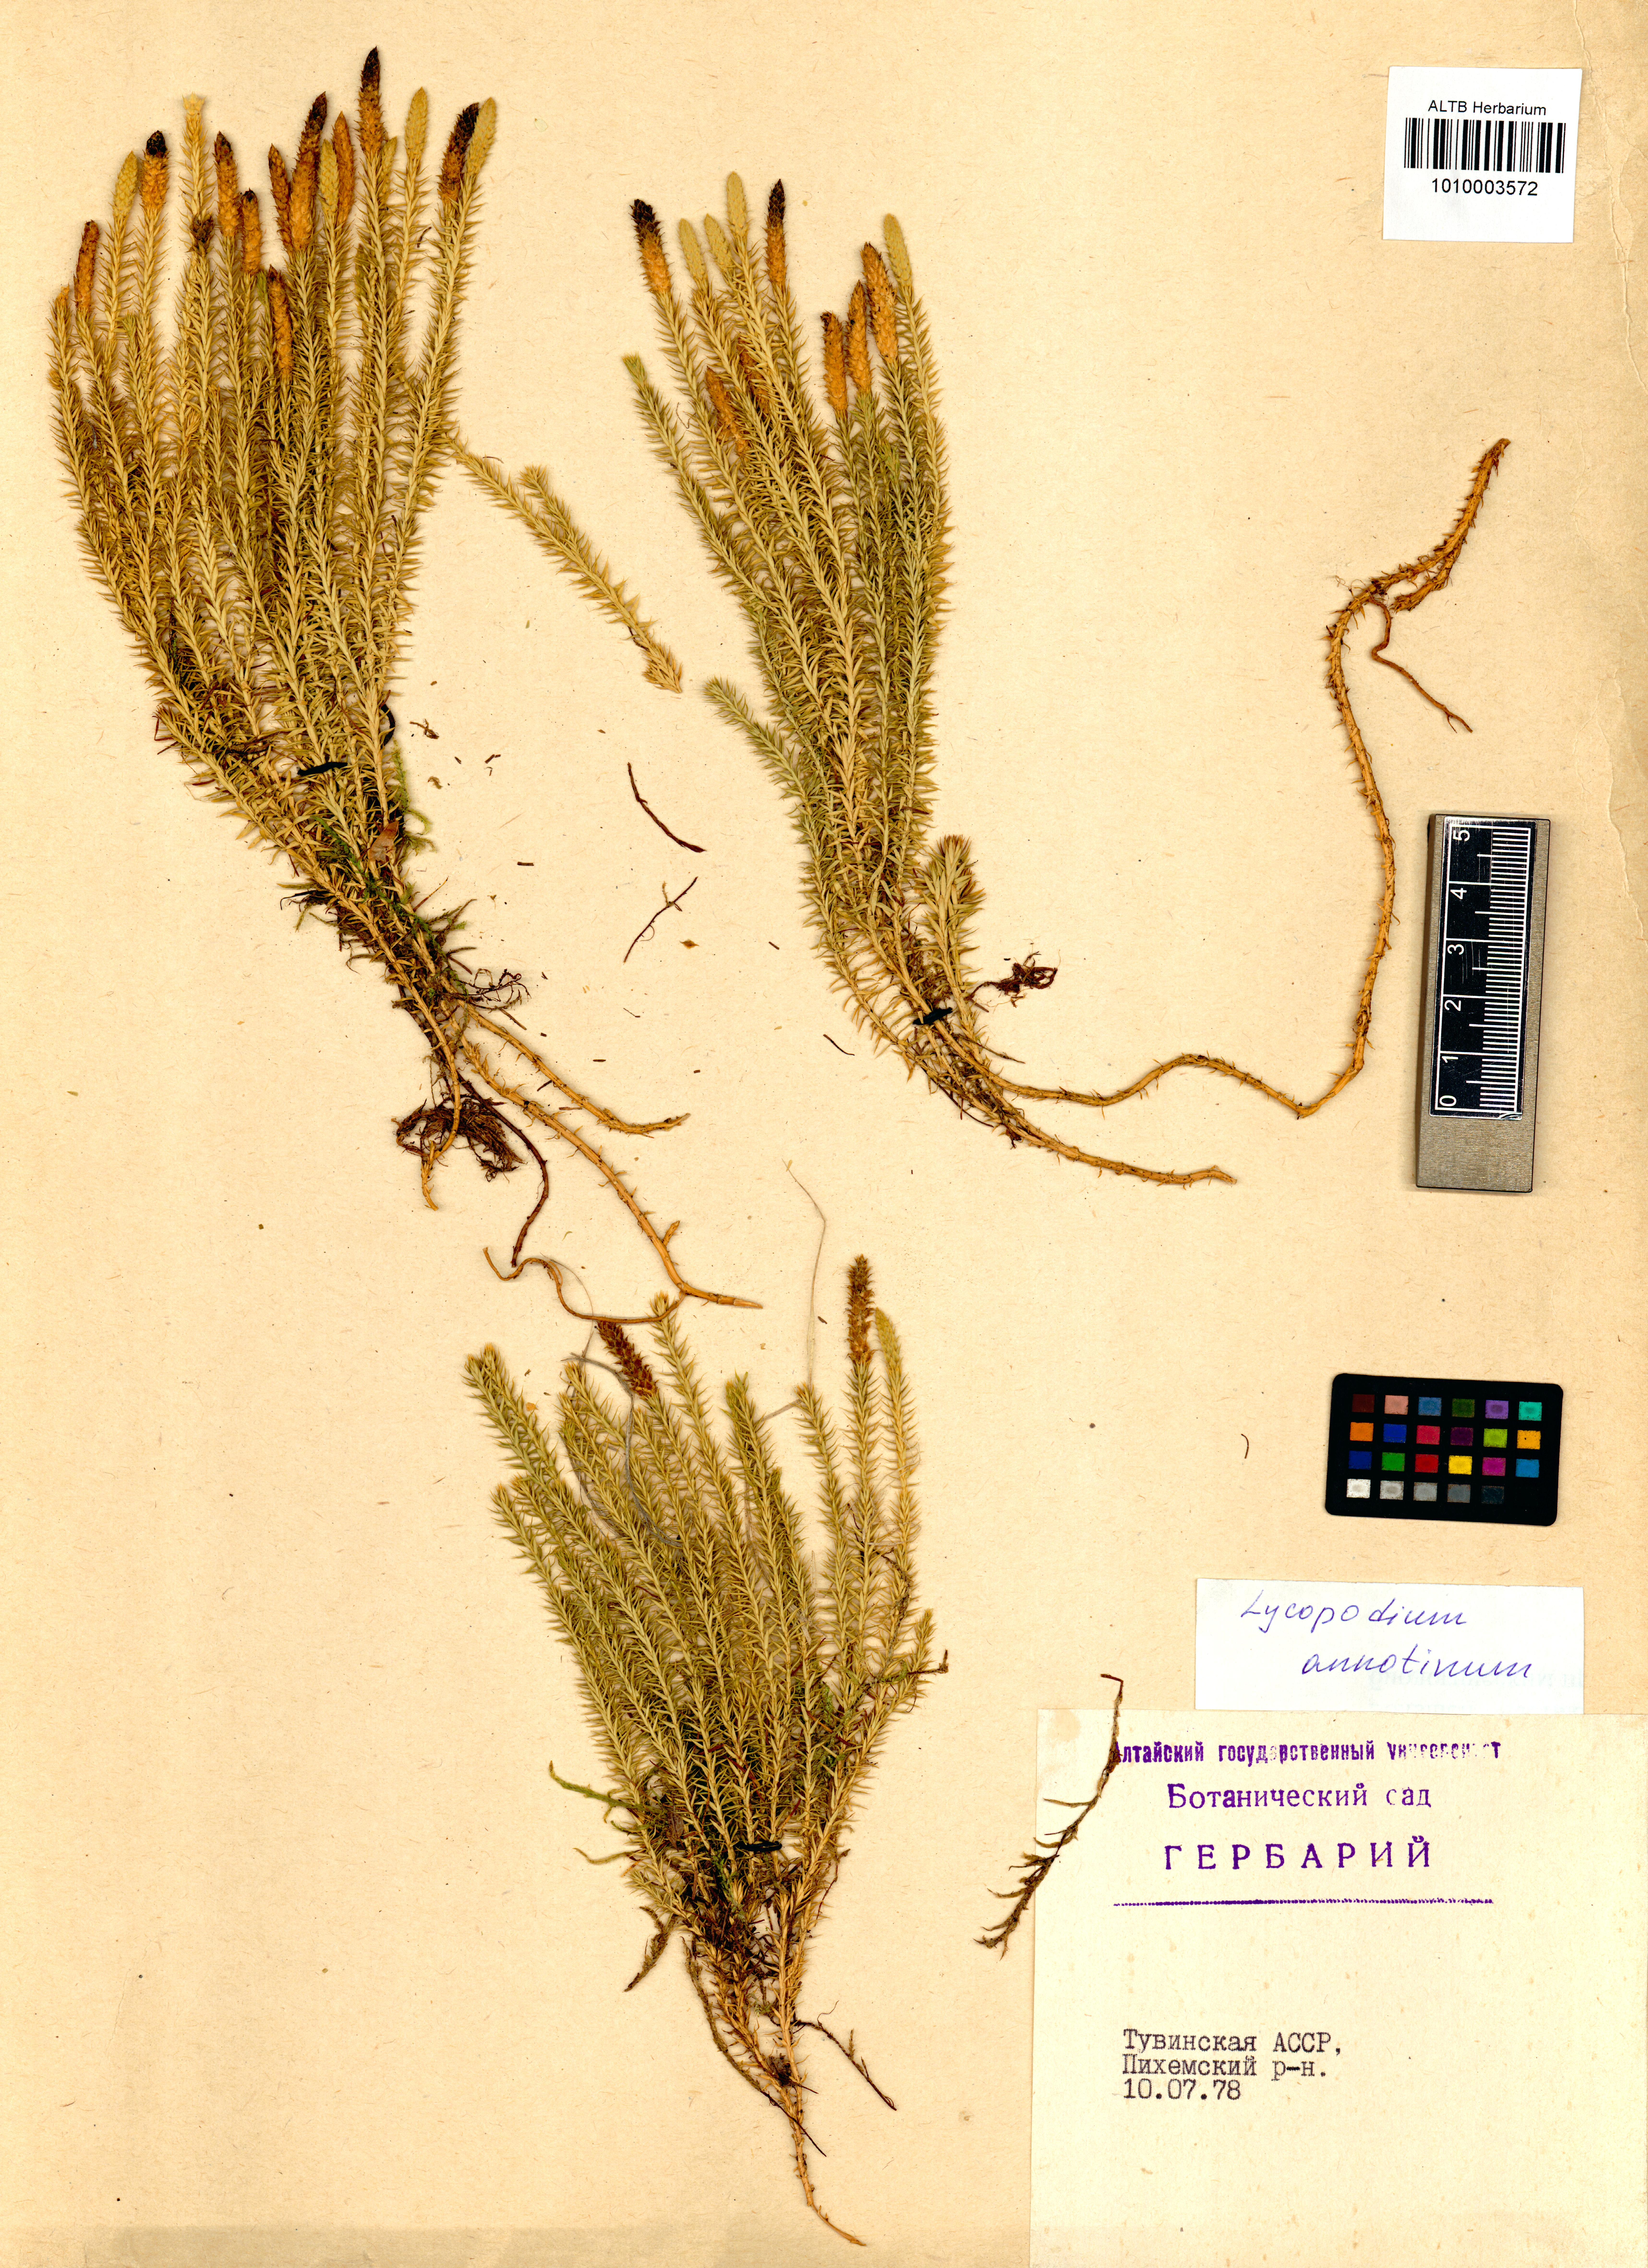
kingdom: Plantae
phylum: Tracheophyta
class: Lycopodiopsida
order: Lycopodiales
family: Lycopodiaceae
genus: Spinulum
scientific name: Spinulum annotinum
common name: Interrupted club-moss
